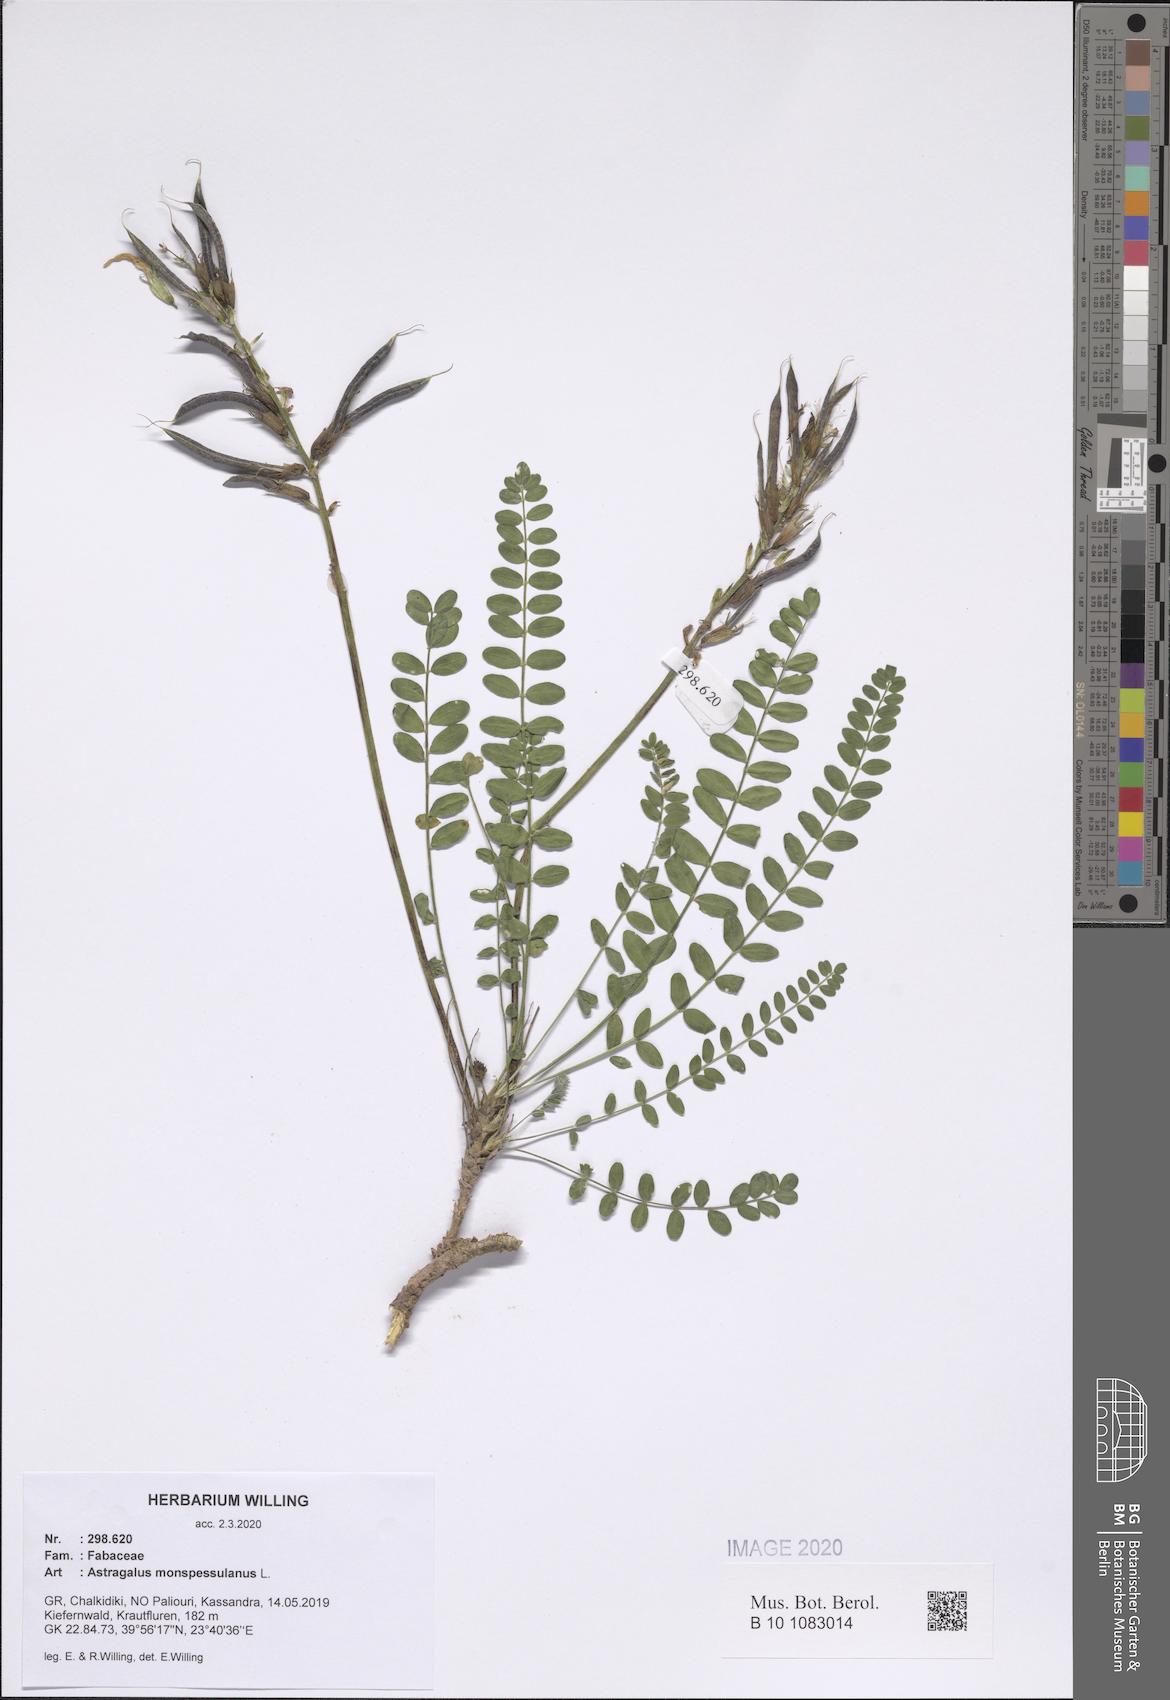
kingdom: Plantae
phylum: Tracheophyta
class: Magnoliopsida
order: Fabales
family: Fabaceae
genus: Astragalus
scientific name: Astragalus monspessulanus
